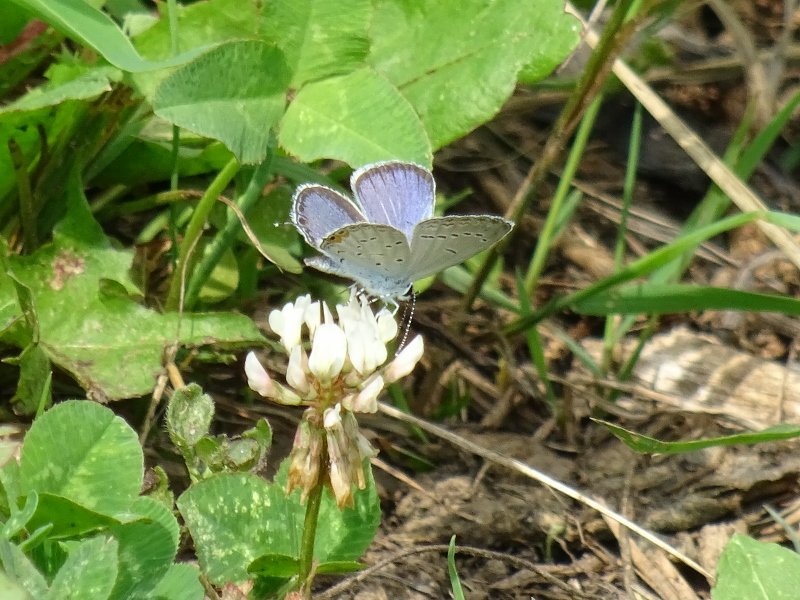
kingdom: Animalia
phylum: Arthropoda
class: Insecta
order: Lepidoptera
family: Lycaenidae
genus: Elkalyce
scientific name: Elkalyce comyntas
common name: Eastern Tailed-Blue
